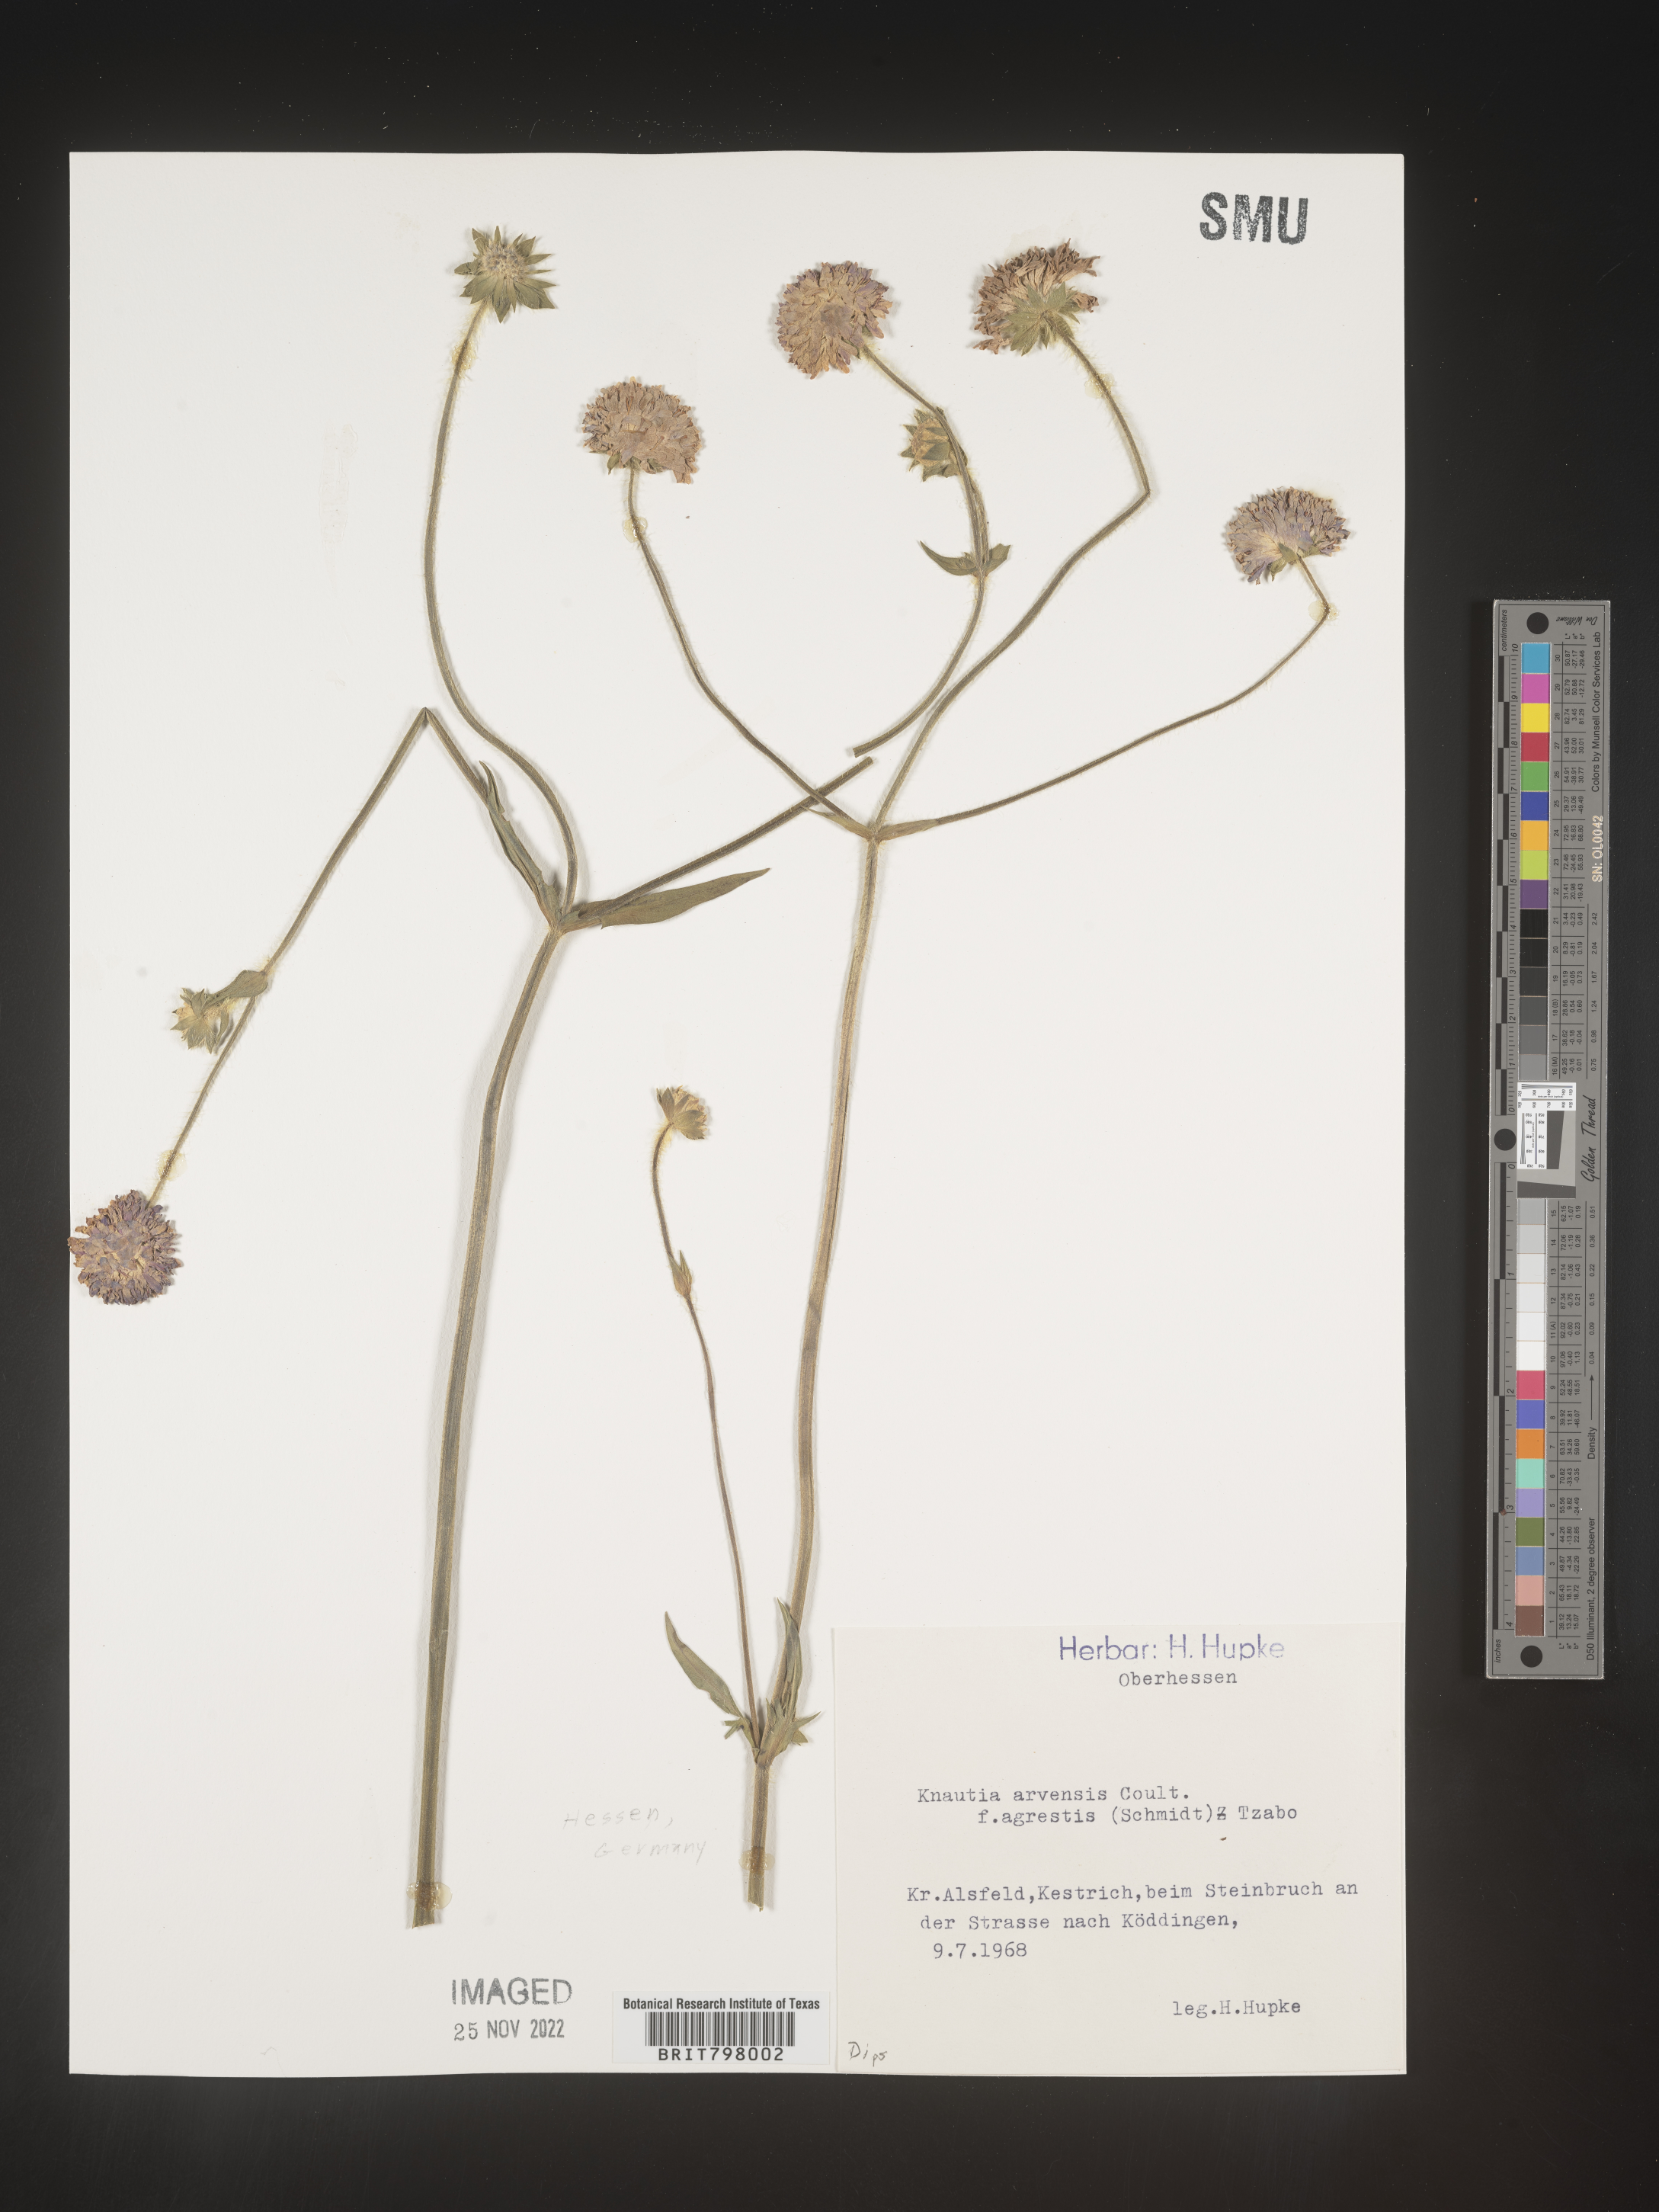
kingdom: Plantae
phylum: Tracheophyta
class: Magnoliopsida
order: Dipsacales
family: Caprifoliaceae
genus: Knautia
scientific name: Knautia
